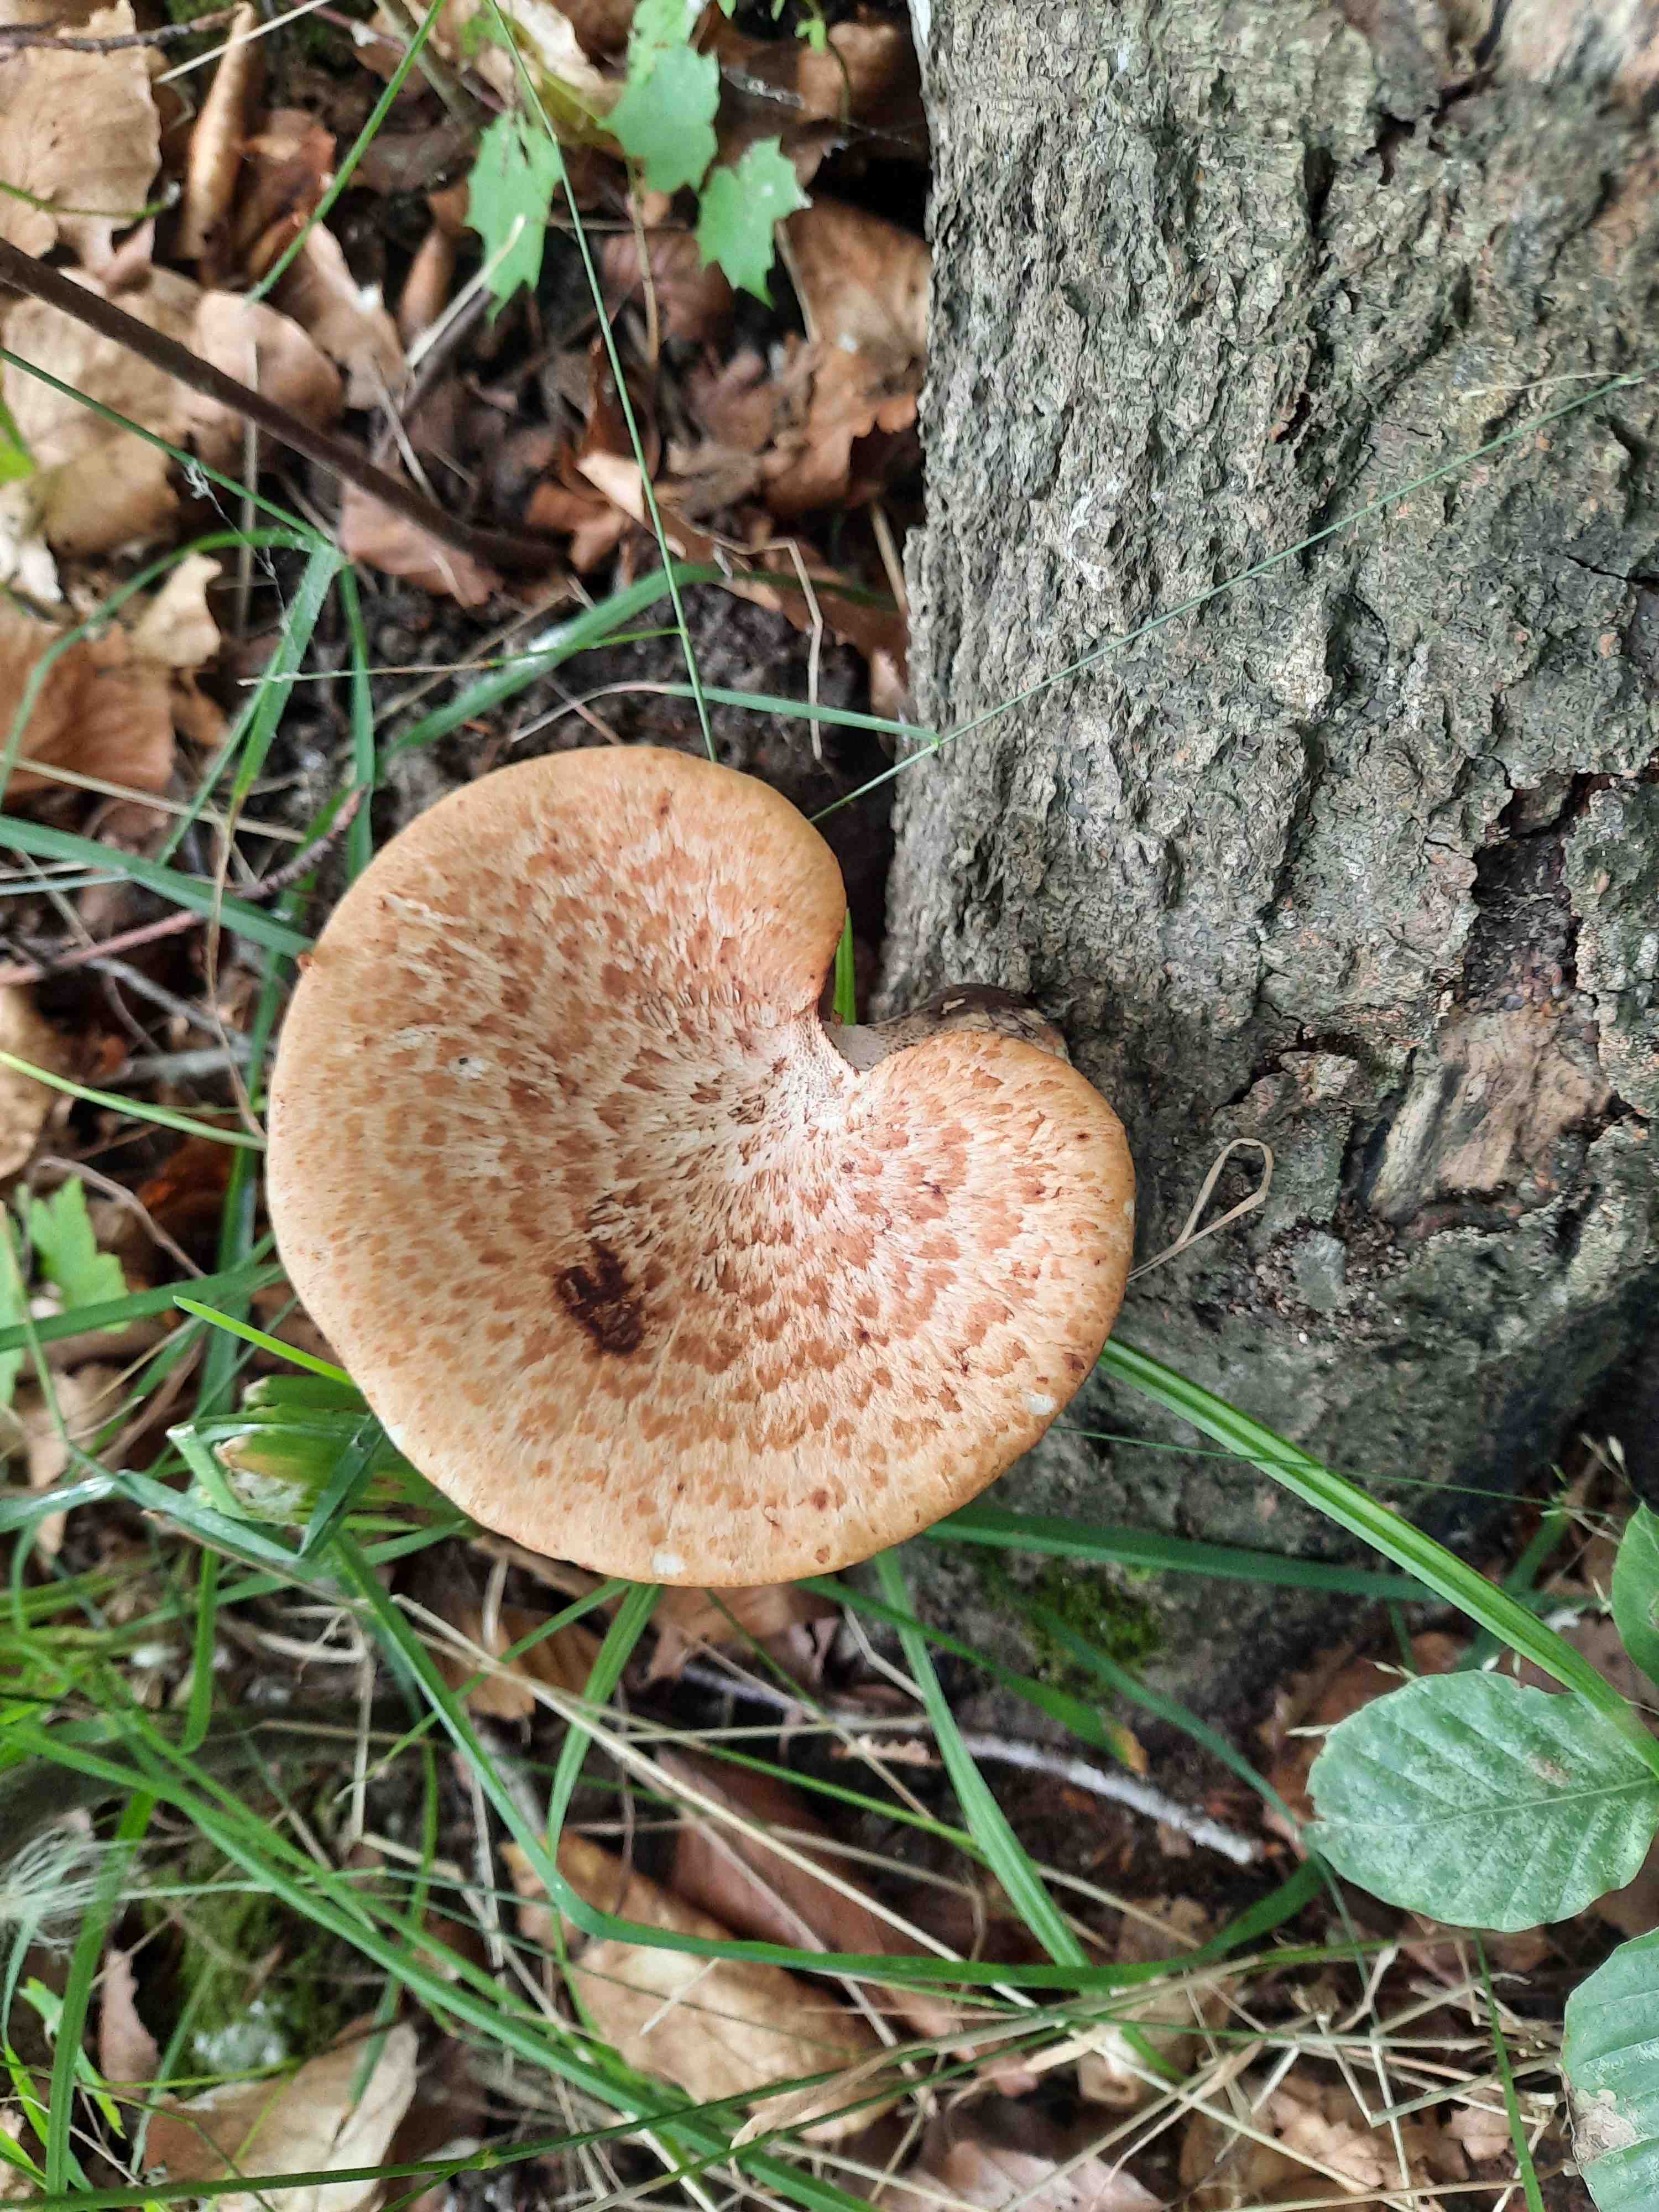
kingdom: Fungi
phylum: Basidiomycota
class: Agaricomycetes
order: Polyporales
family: Polyporaceae
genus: Cerioporus
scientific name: Cerioporus squamosus
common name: skællet stilkporesvamp
